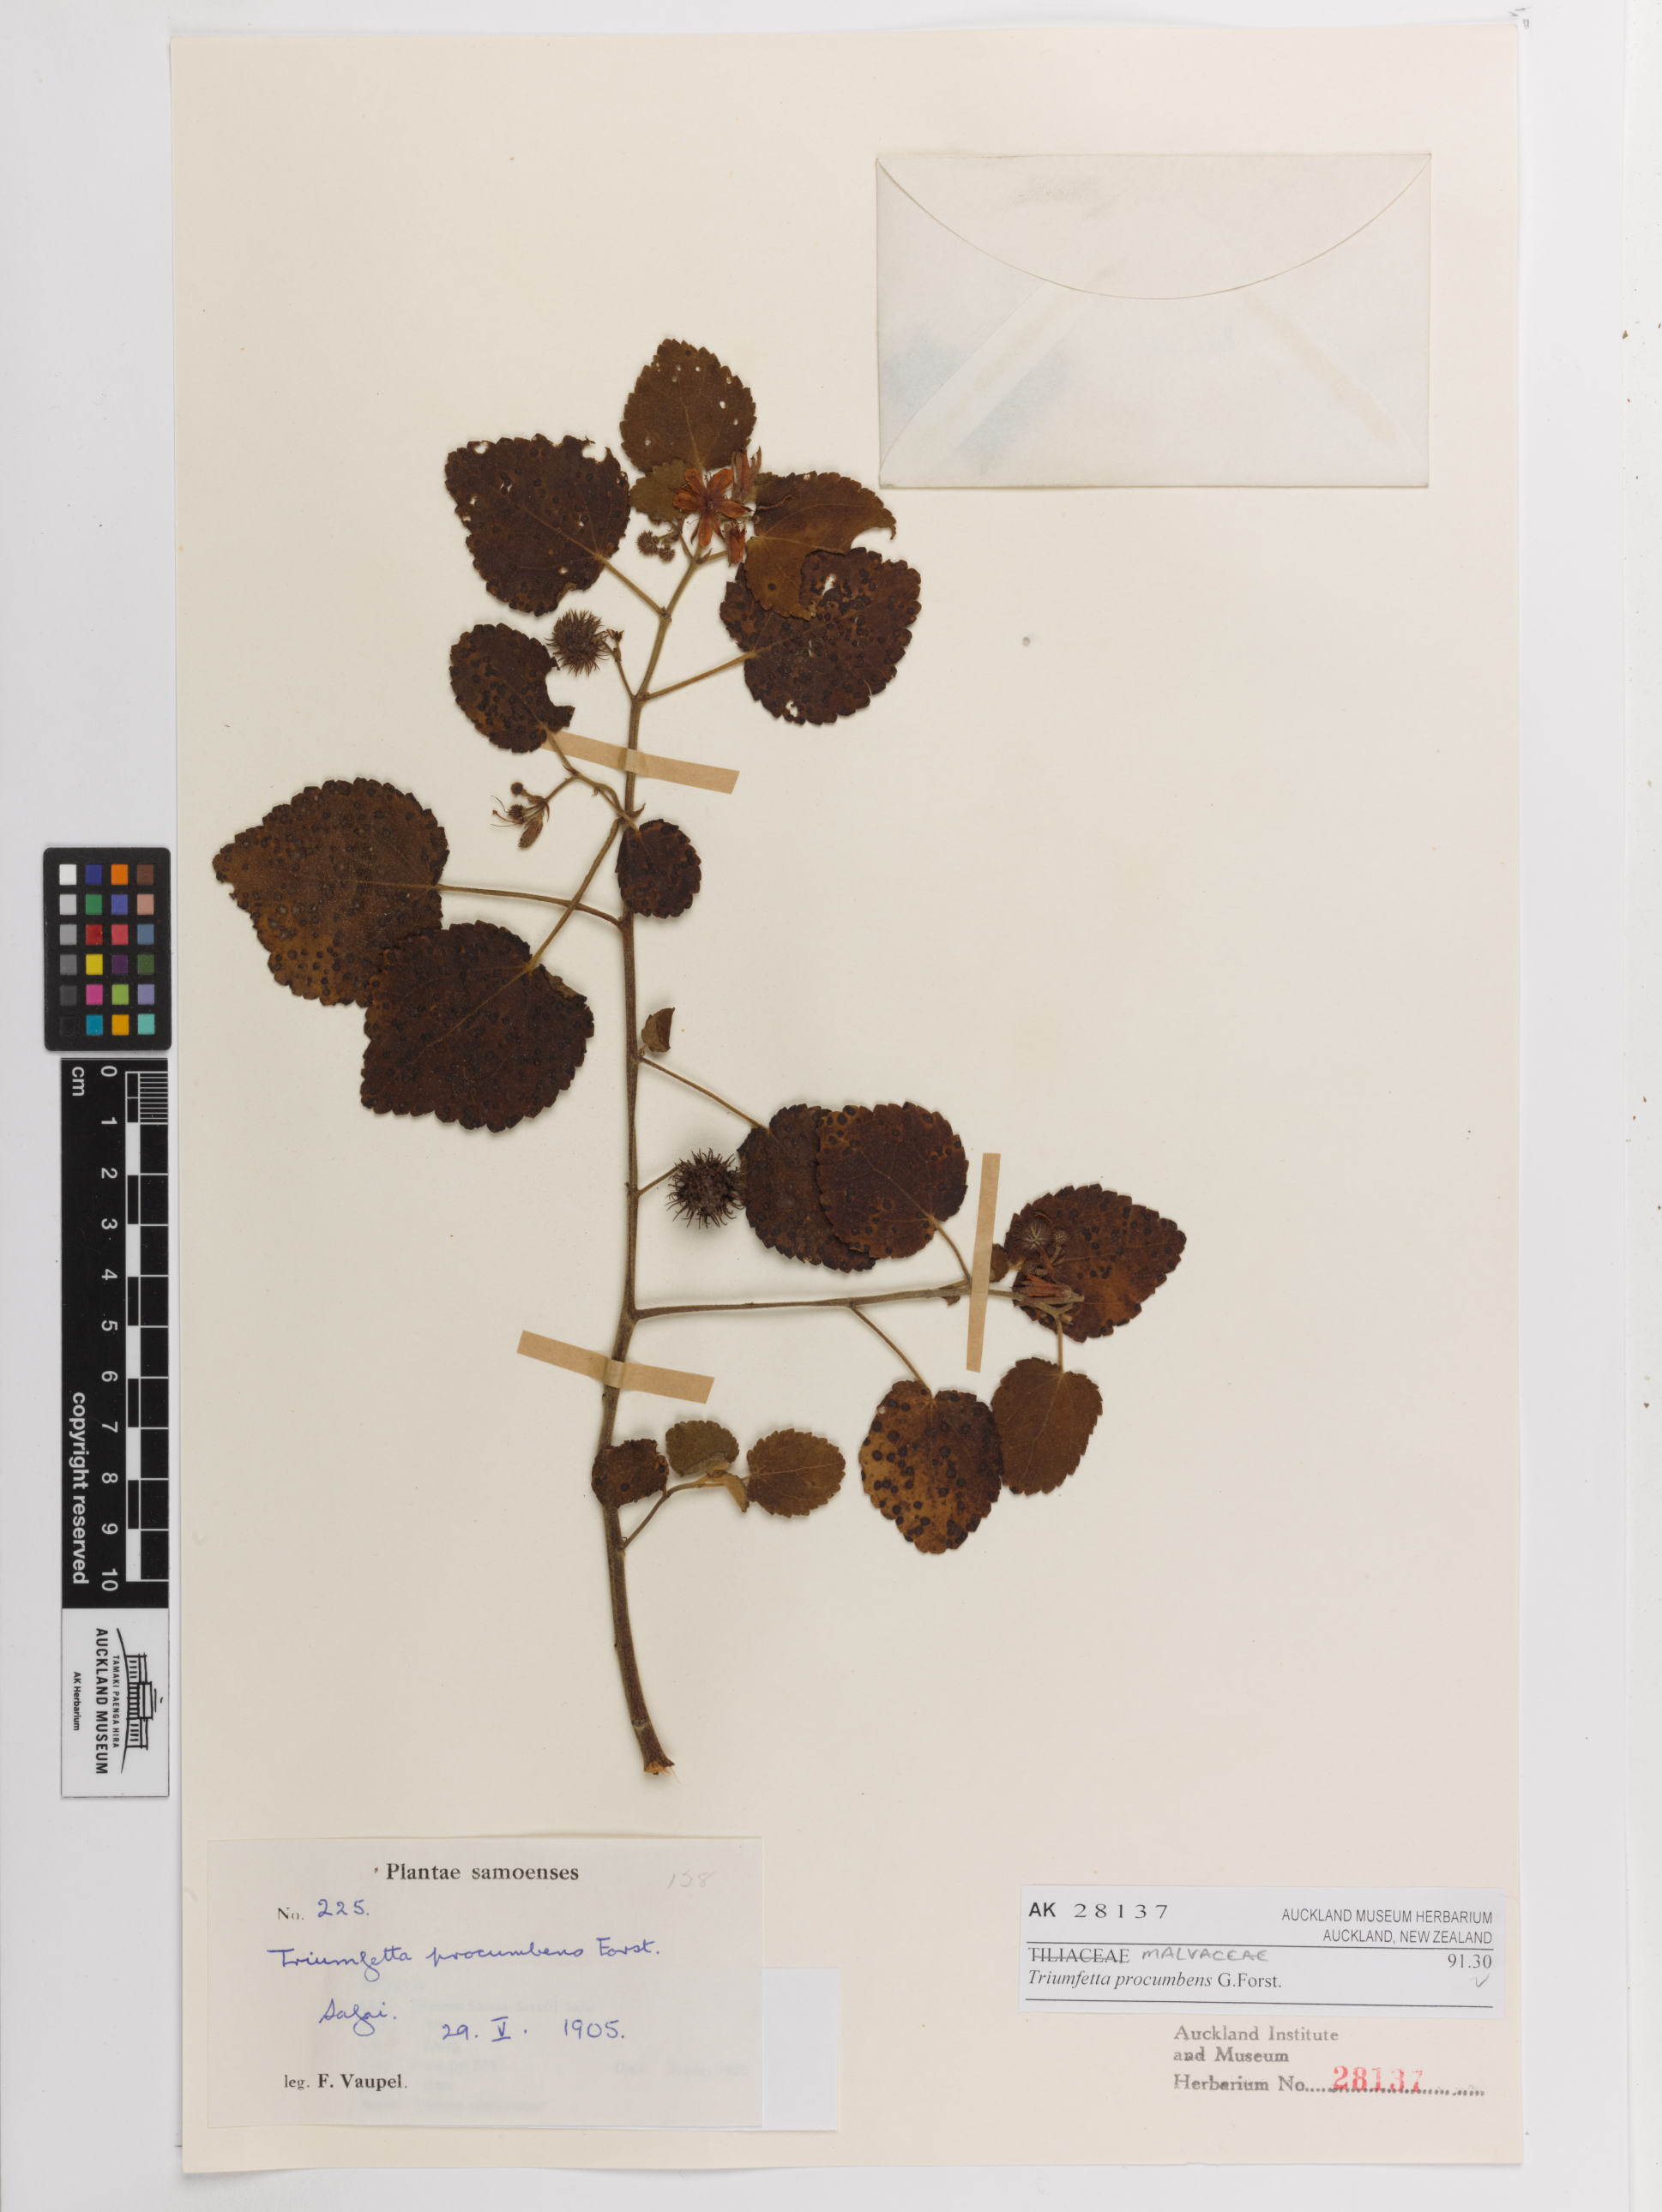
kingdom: Plantae
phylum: Tracheophyta
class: Magnoliopsida
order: Malvales
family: Malvaceae
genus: Triumfetta
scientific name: Triumfetta procumbens
